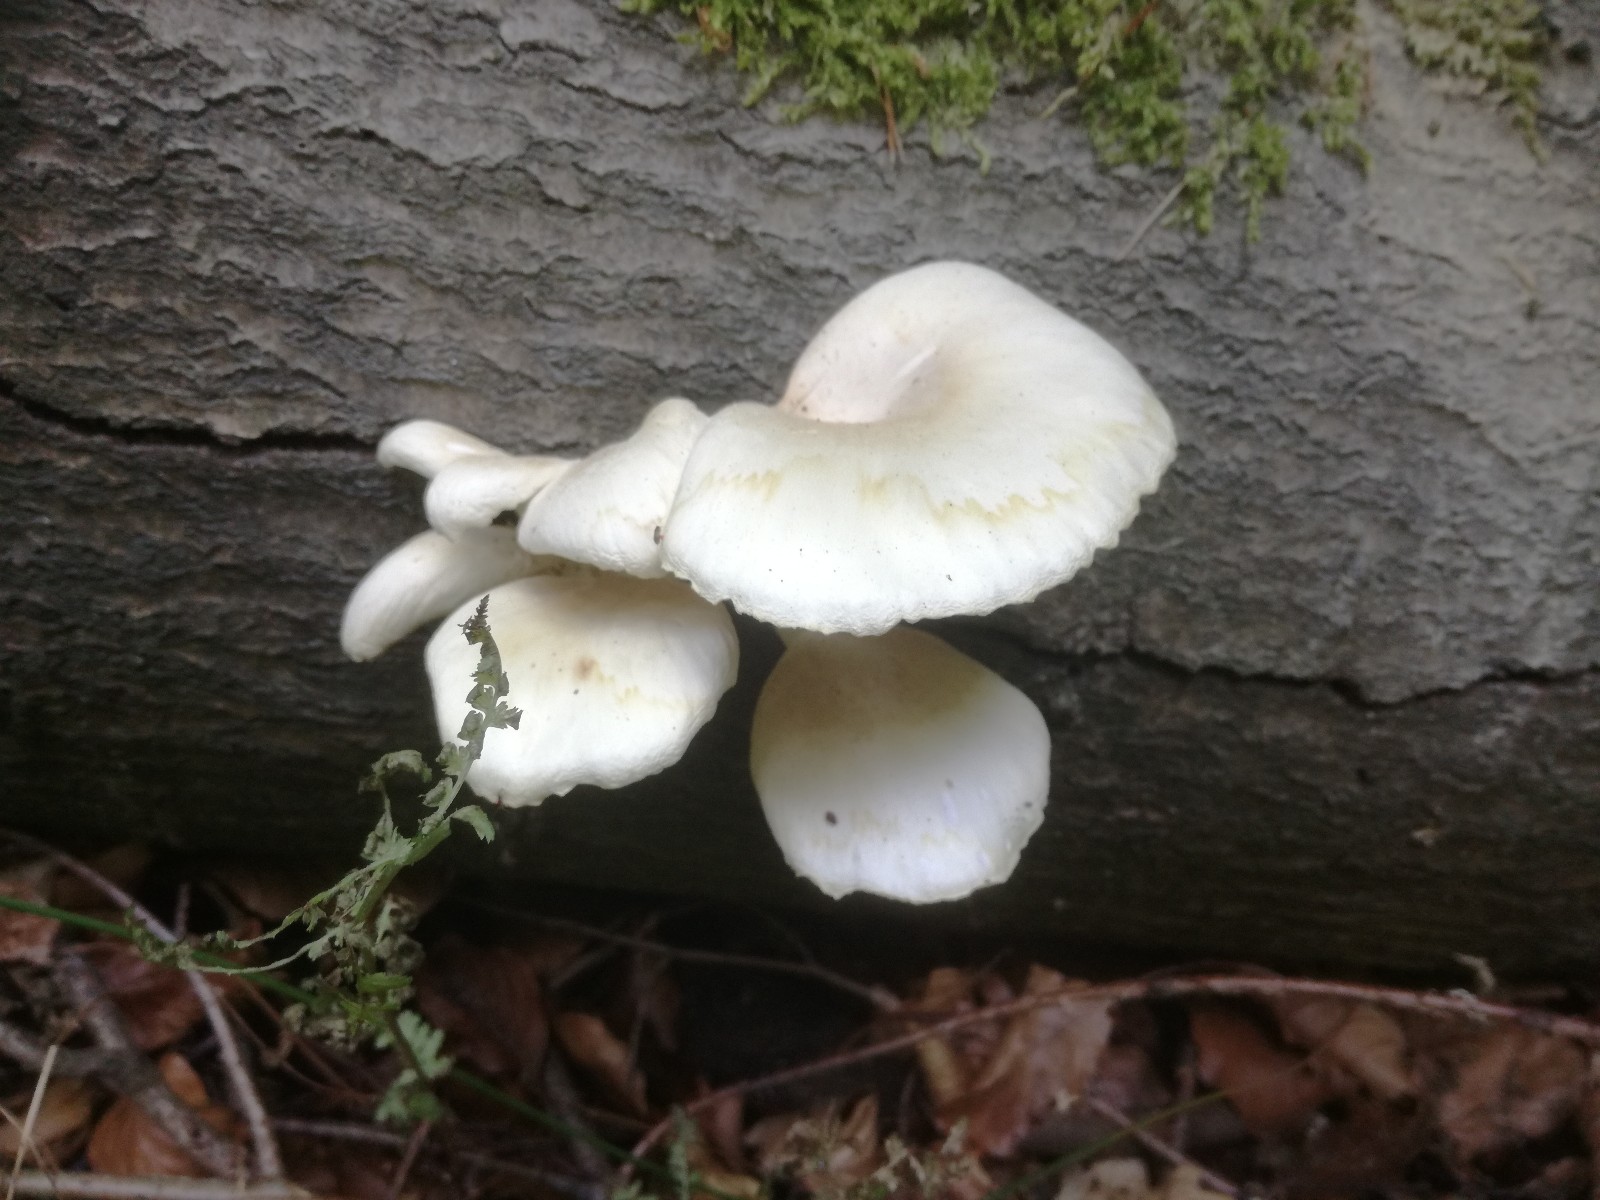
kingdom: Fungi
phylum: Basidiomycota
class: Agaricomycetes
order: Agaricales
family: Pleurotaceae
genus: Pleurotus
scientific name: Pleurotus pulmonarius
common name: sommer-østershat
